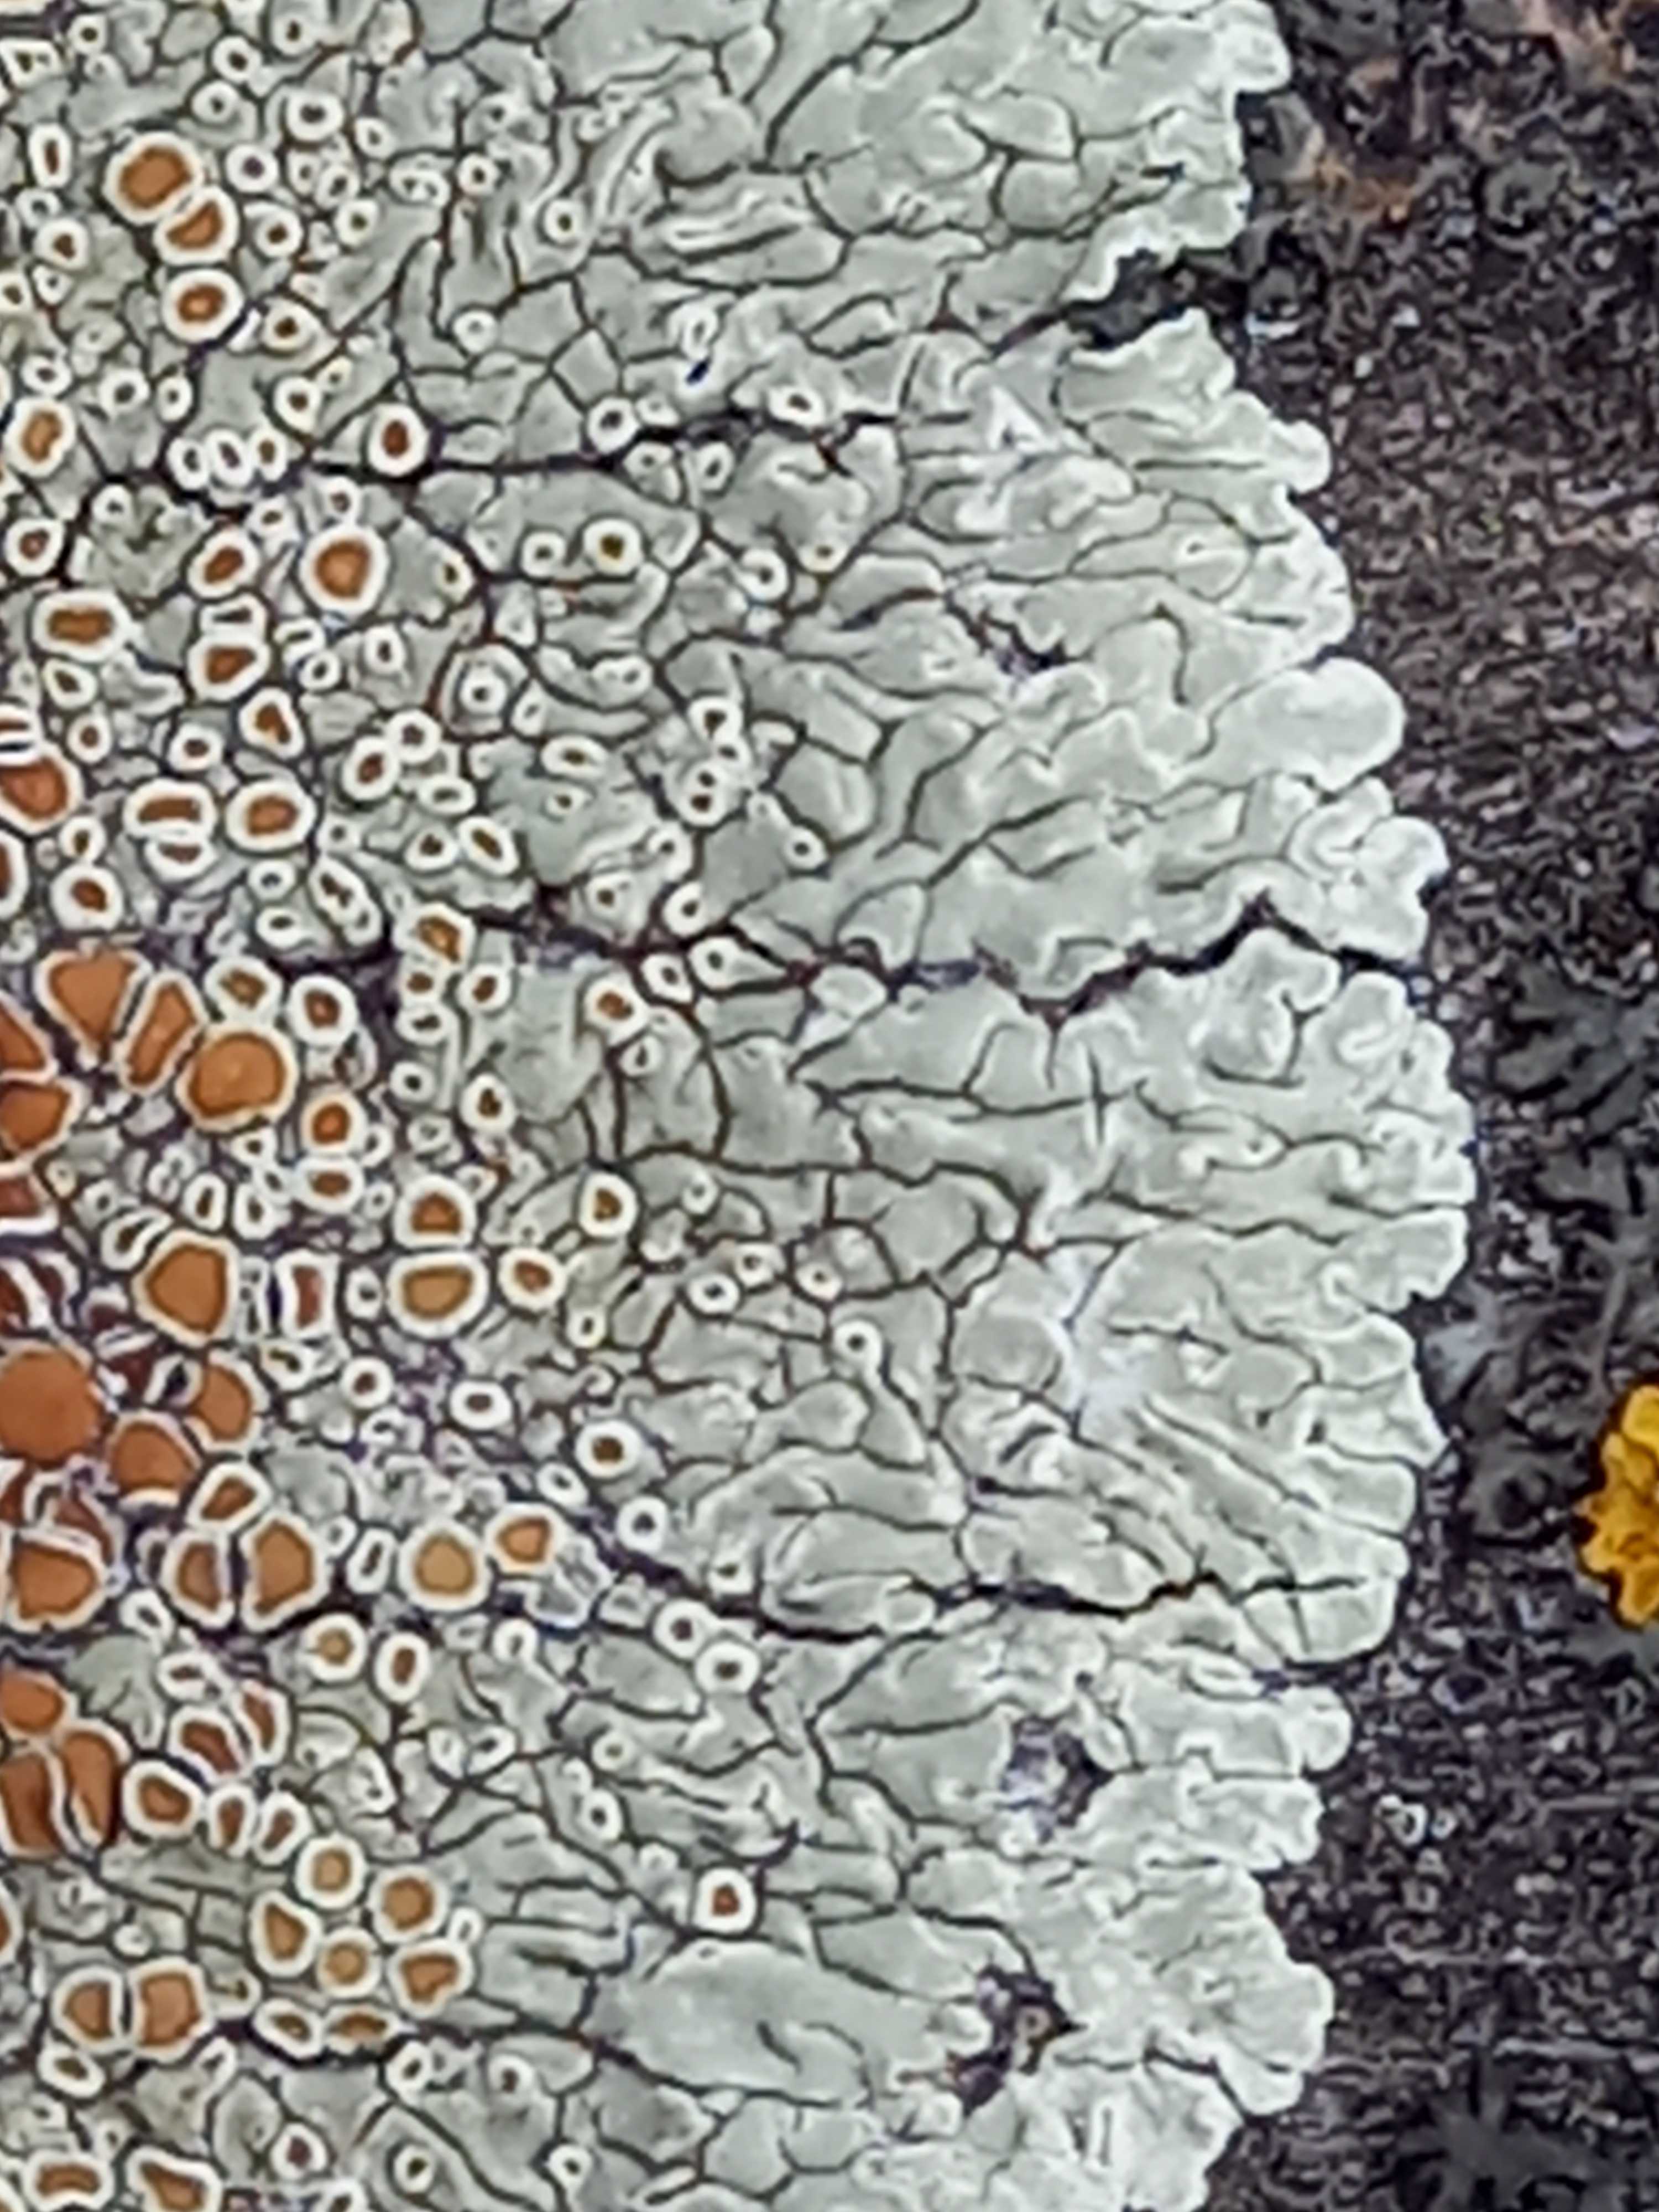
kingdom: Fungi
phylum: Ascomycota
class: Lecanoromycetes
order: Lecanorales
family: Lecanoraceae
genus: Protoparmeliopsis
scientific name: Protoparmeliopsis muralis
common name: randfliget kantskivelav
